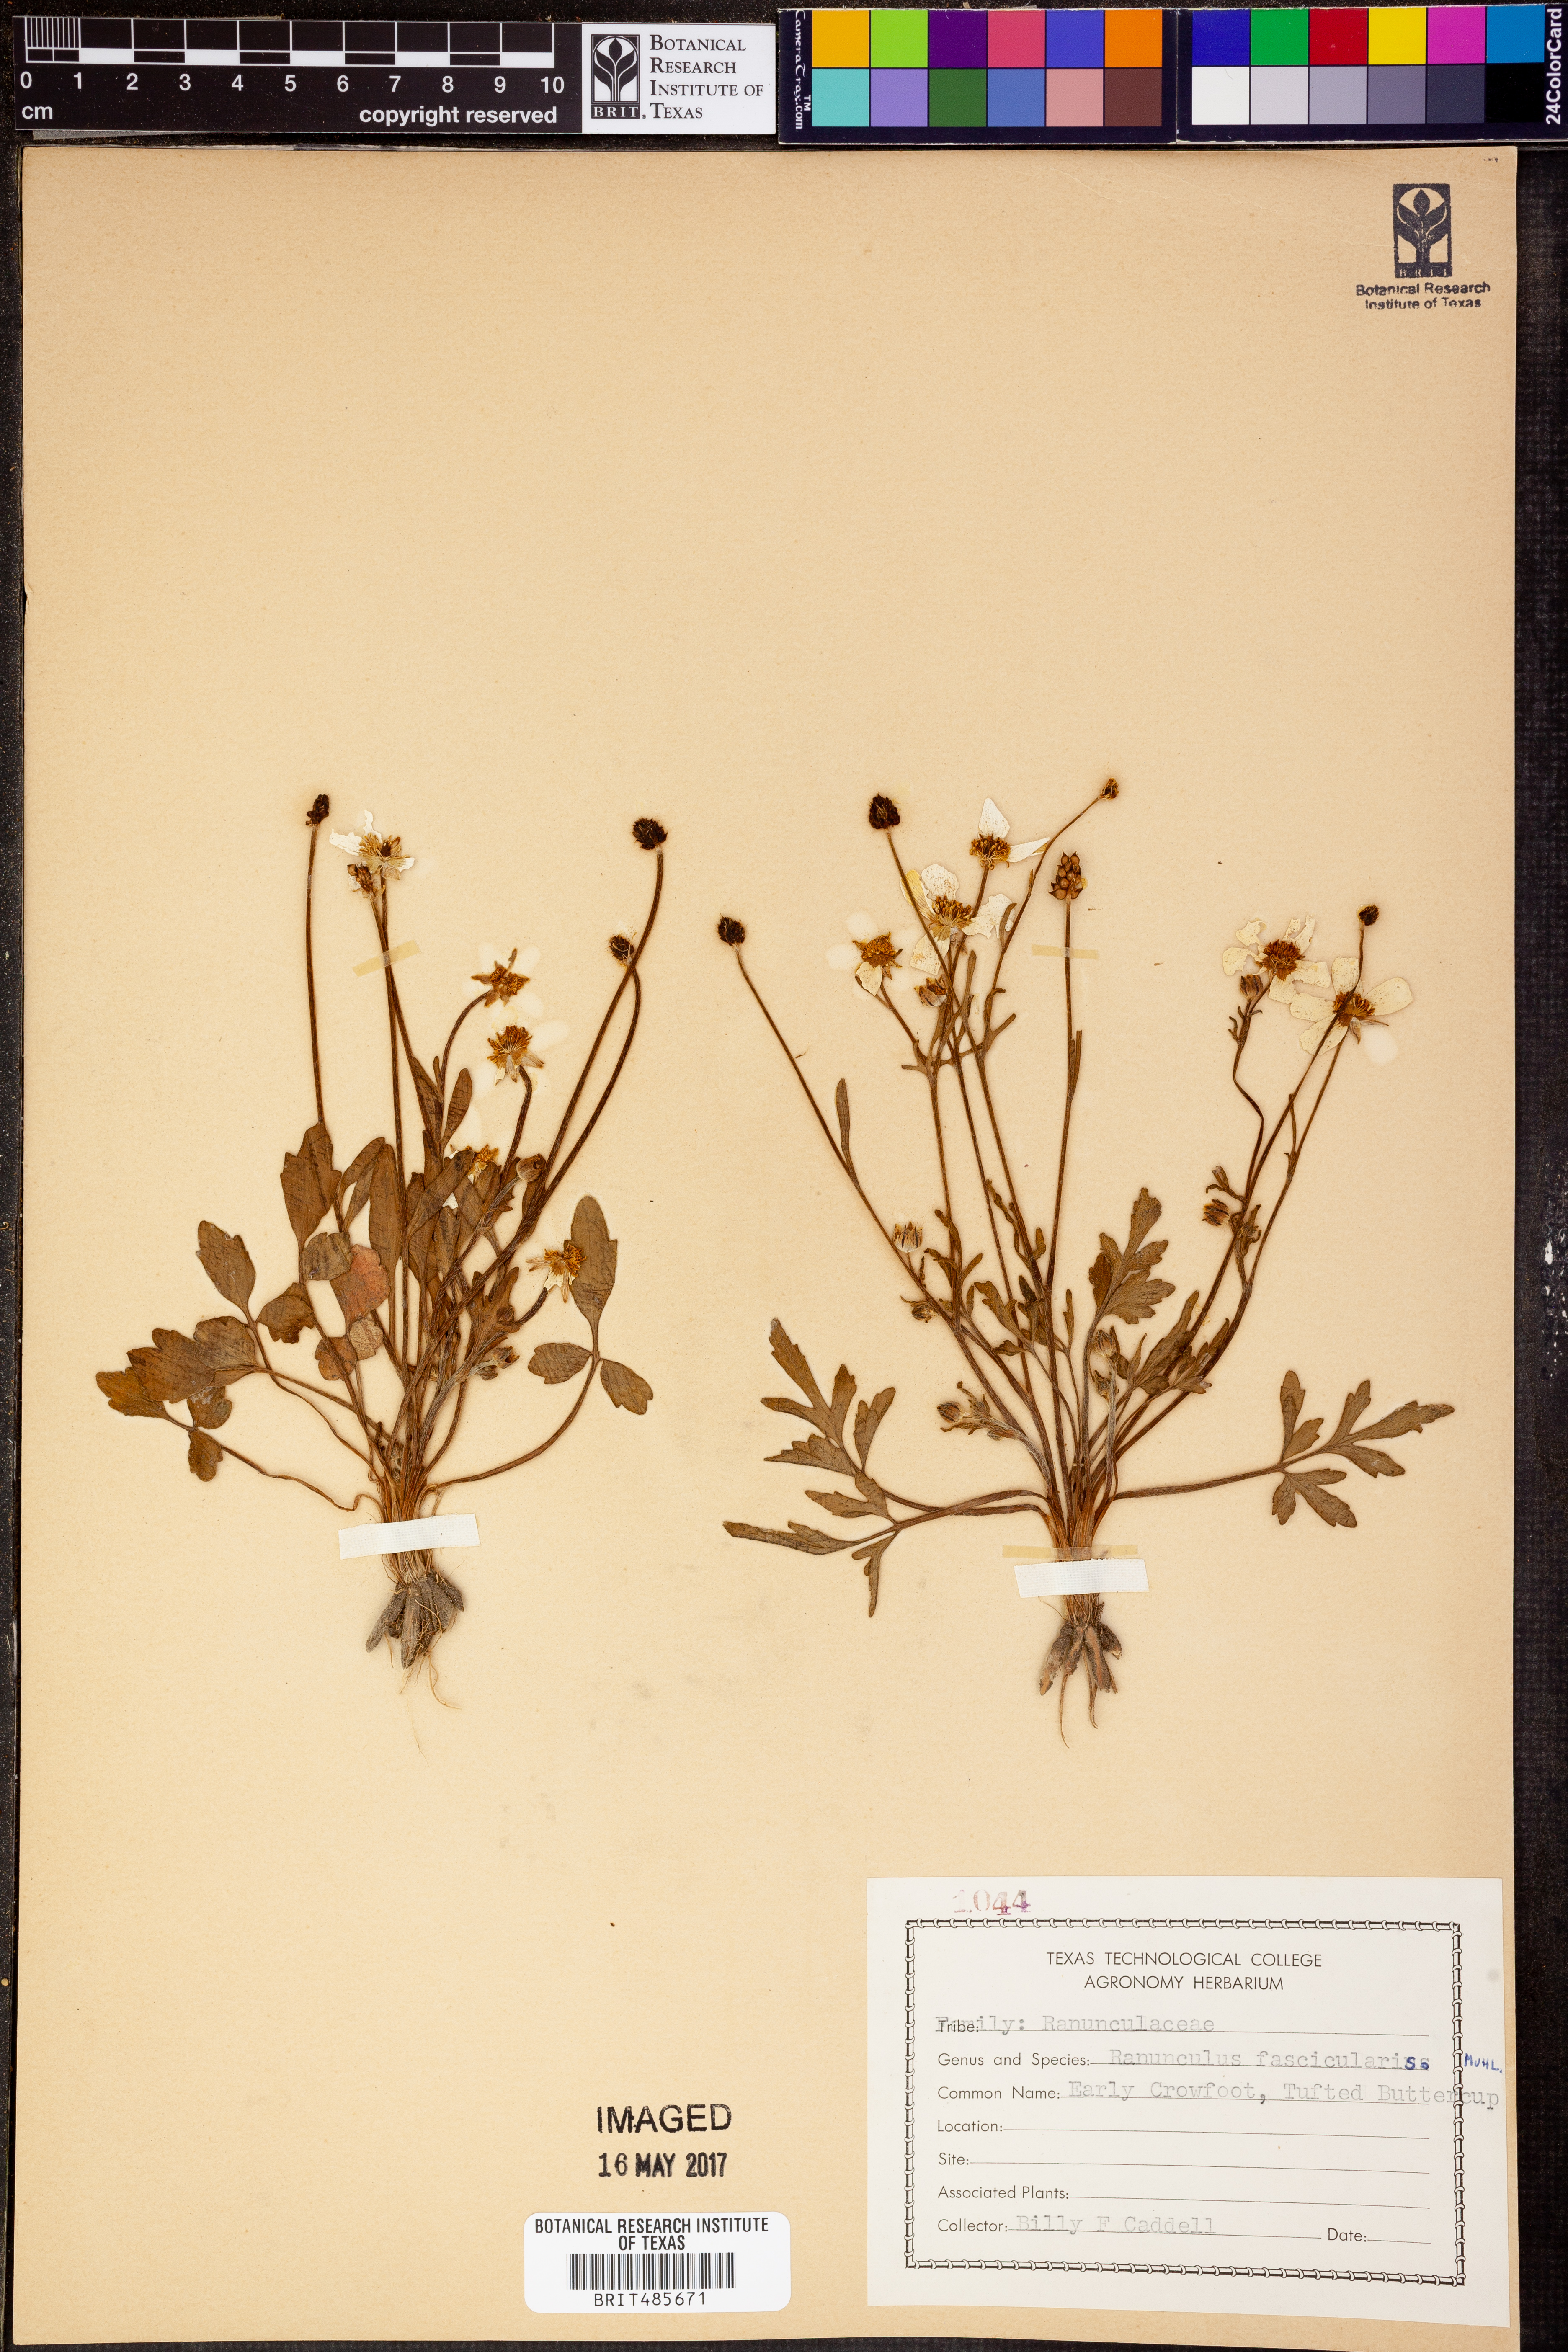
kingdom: Plantae
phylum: Tracheophyta
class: Magnoliopsida
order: Ranunculales
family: Ranunculaceae
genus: Ranunculus
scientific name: Ranunculus fascicularis
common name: Early buttercup
